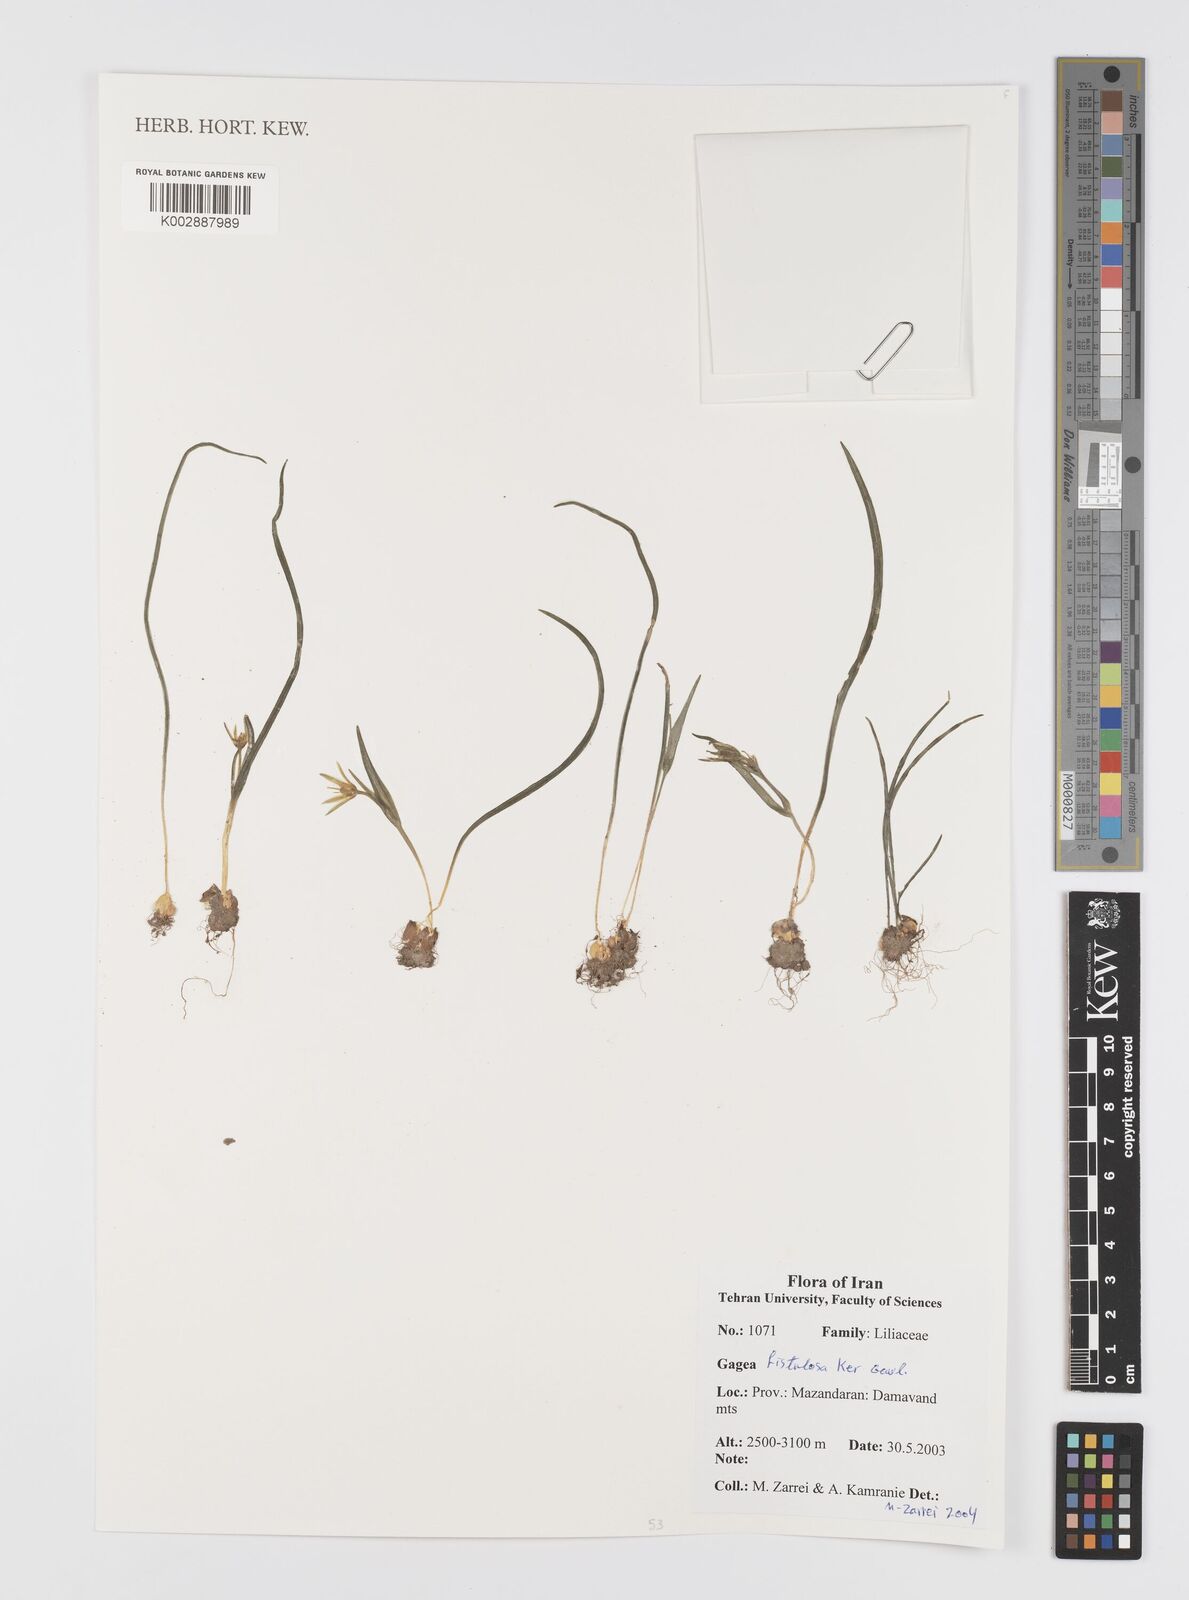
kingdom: Plantae
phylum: Tracheophyta
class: Liliopsida
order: Liliales
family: Liliaceae
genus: Gagea
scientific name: Gagea bohemica
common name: Early star-of-bethlehem
